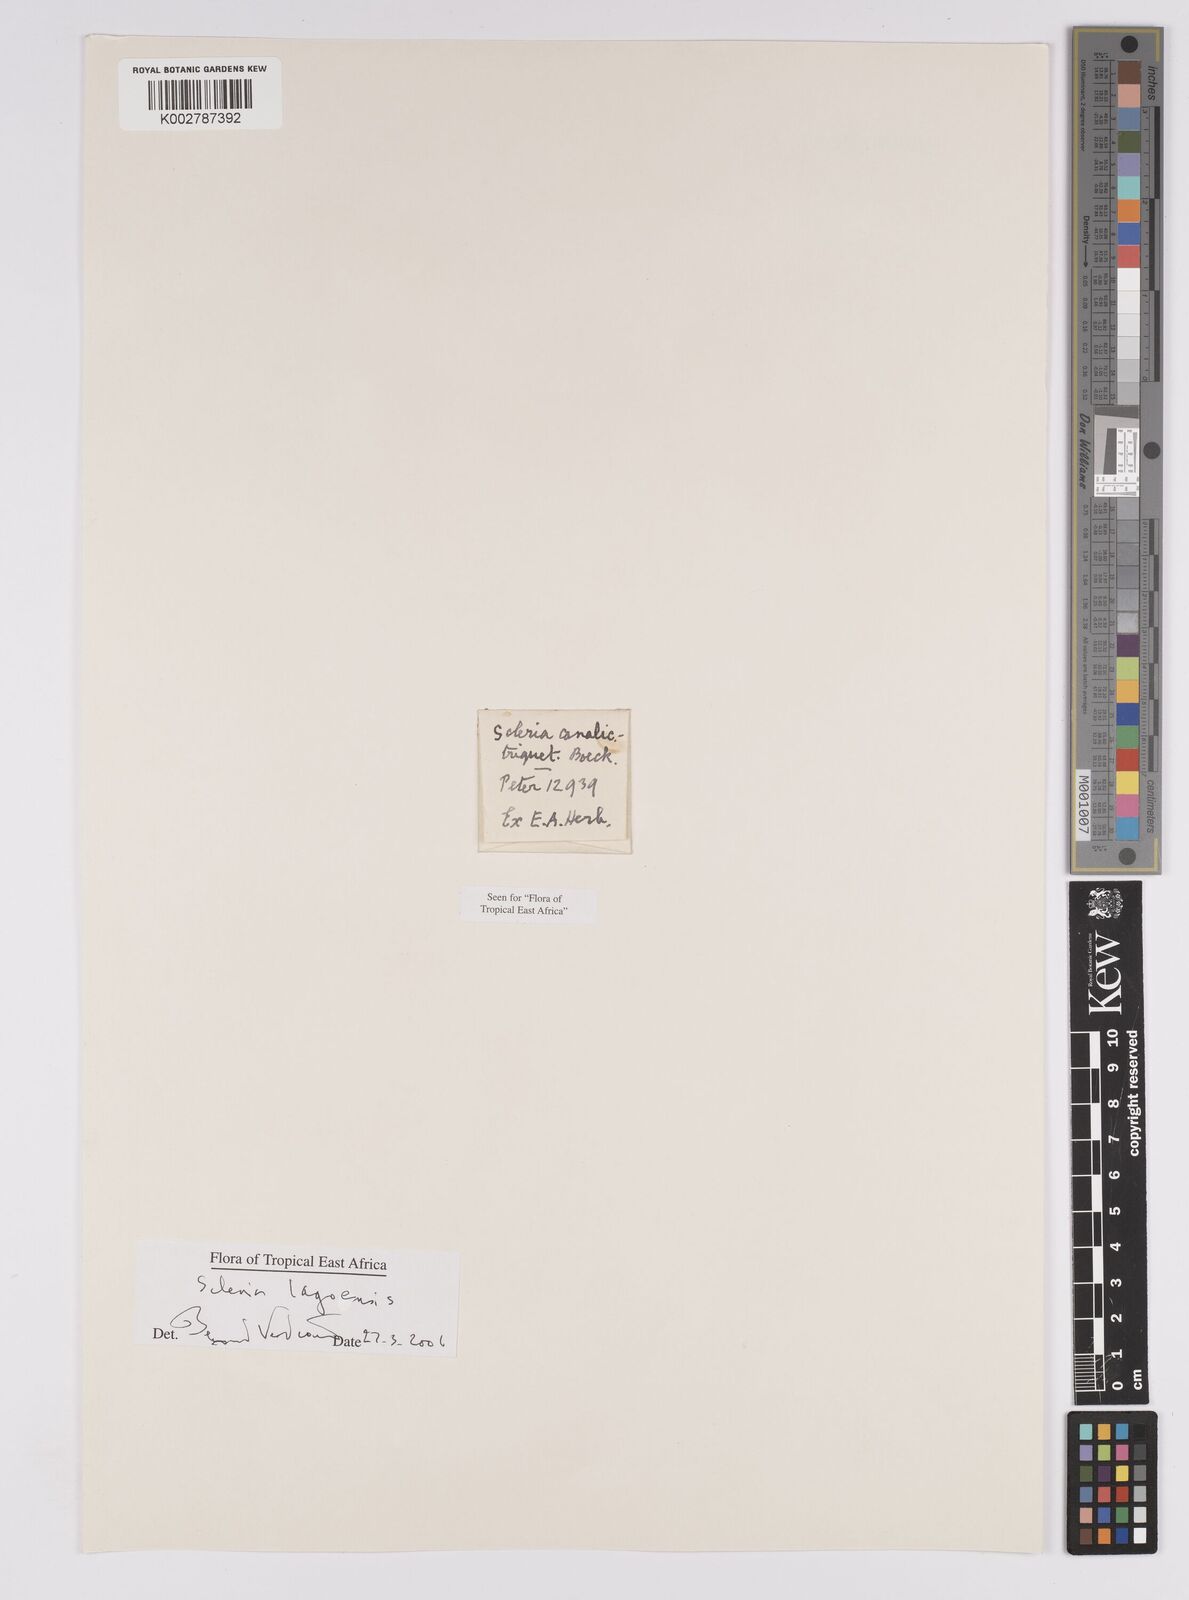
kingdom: Plantae
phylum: Tracheophyta
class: Liliopsida
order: Poales
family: Cyperaceae
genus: Scleria
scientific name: Scleria lagoensis
